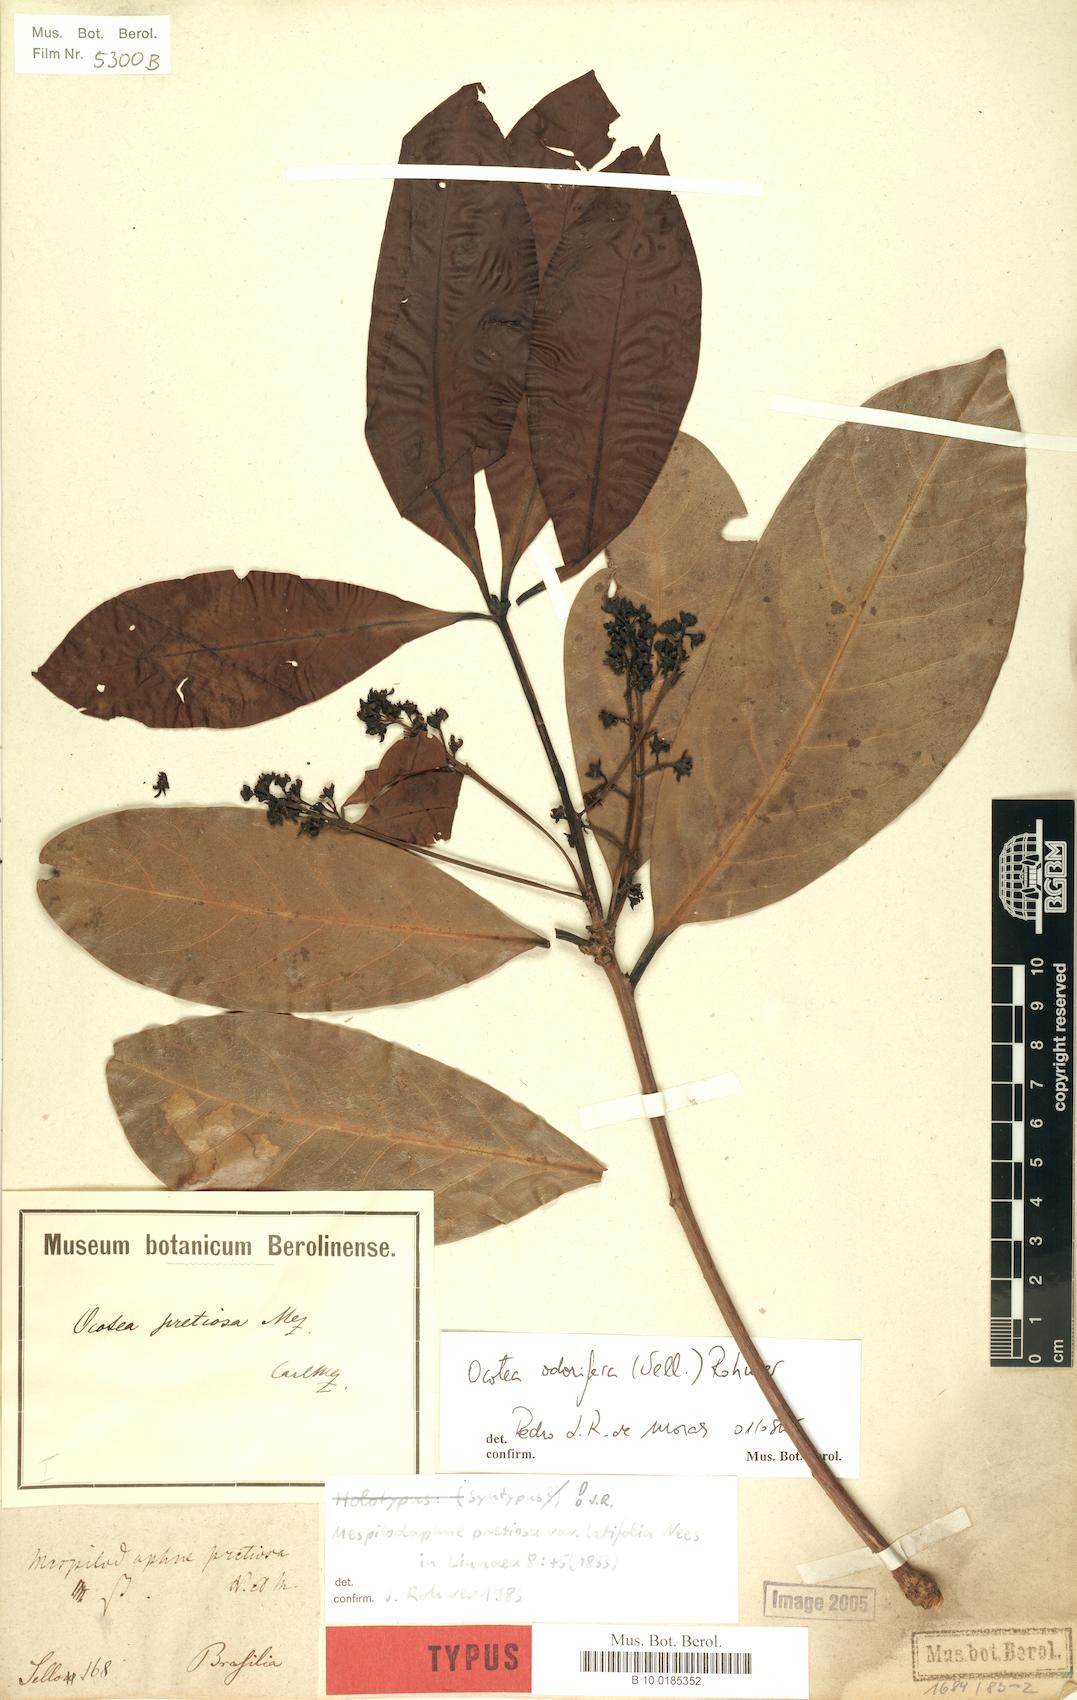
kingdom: Plantae
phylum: Tracheophyta
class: Magnoliopsida
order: Laurales
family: Lauraceae
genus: Mespilodaphne
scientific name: Mespilodaphne quixos
